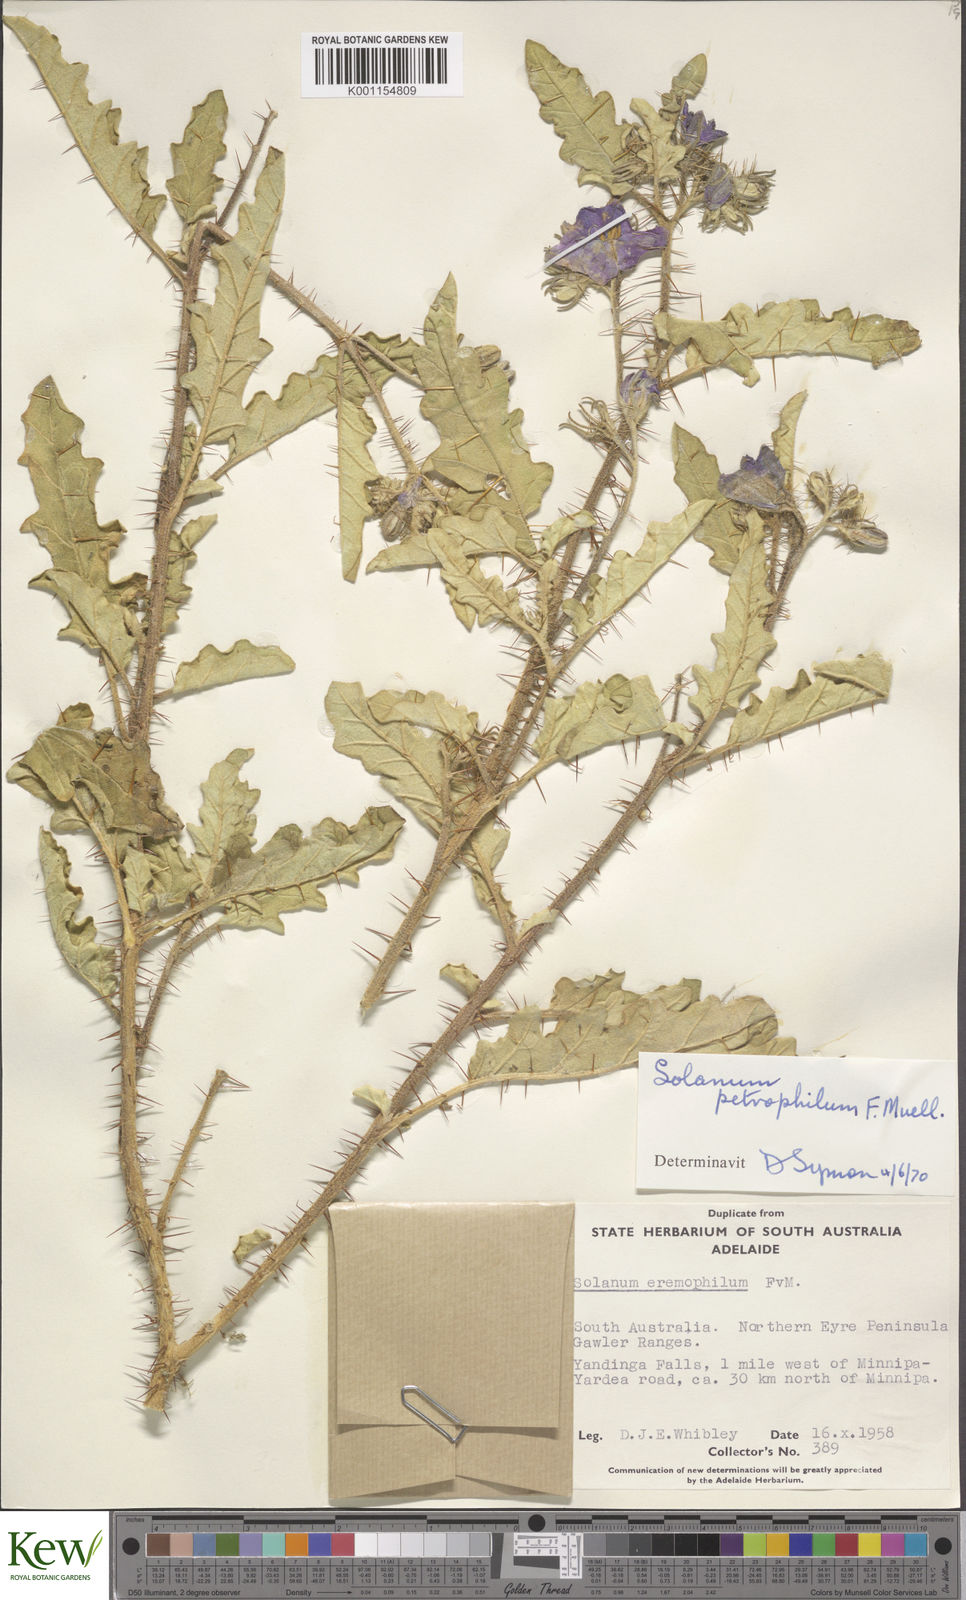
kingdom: Plantae
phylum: Tracheophyta
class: Magnoliopsida
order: Solanales
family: Solanaceae
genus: Solanum
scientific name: Solanum petrophilum
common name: Rock nightshade
